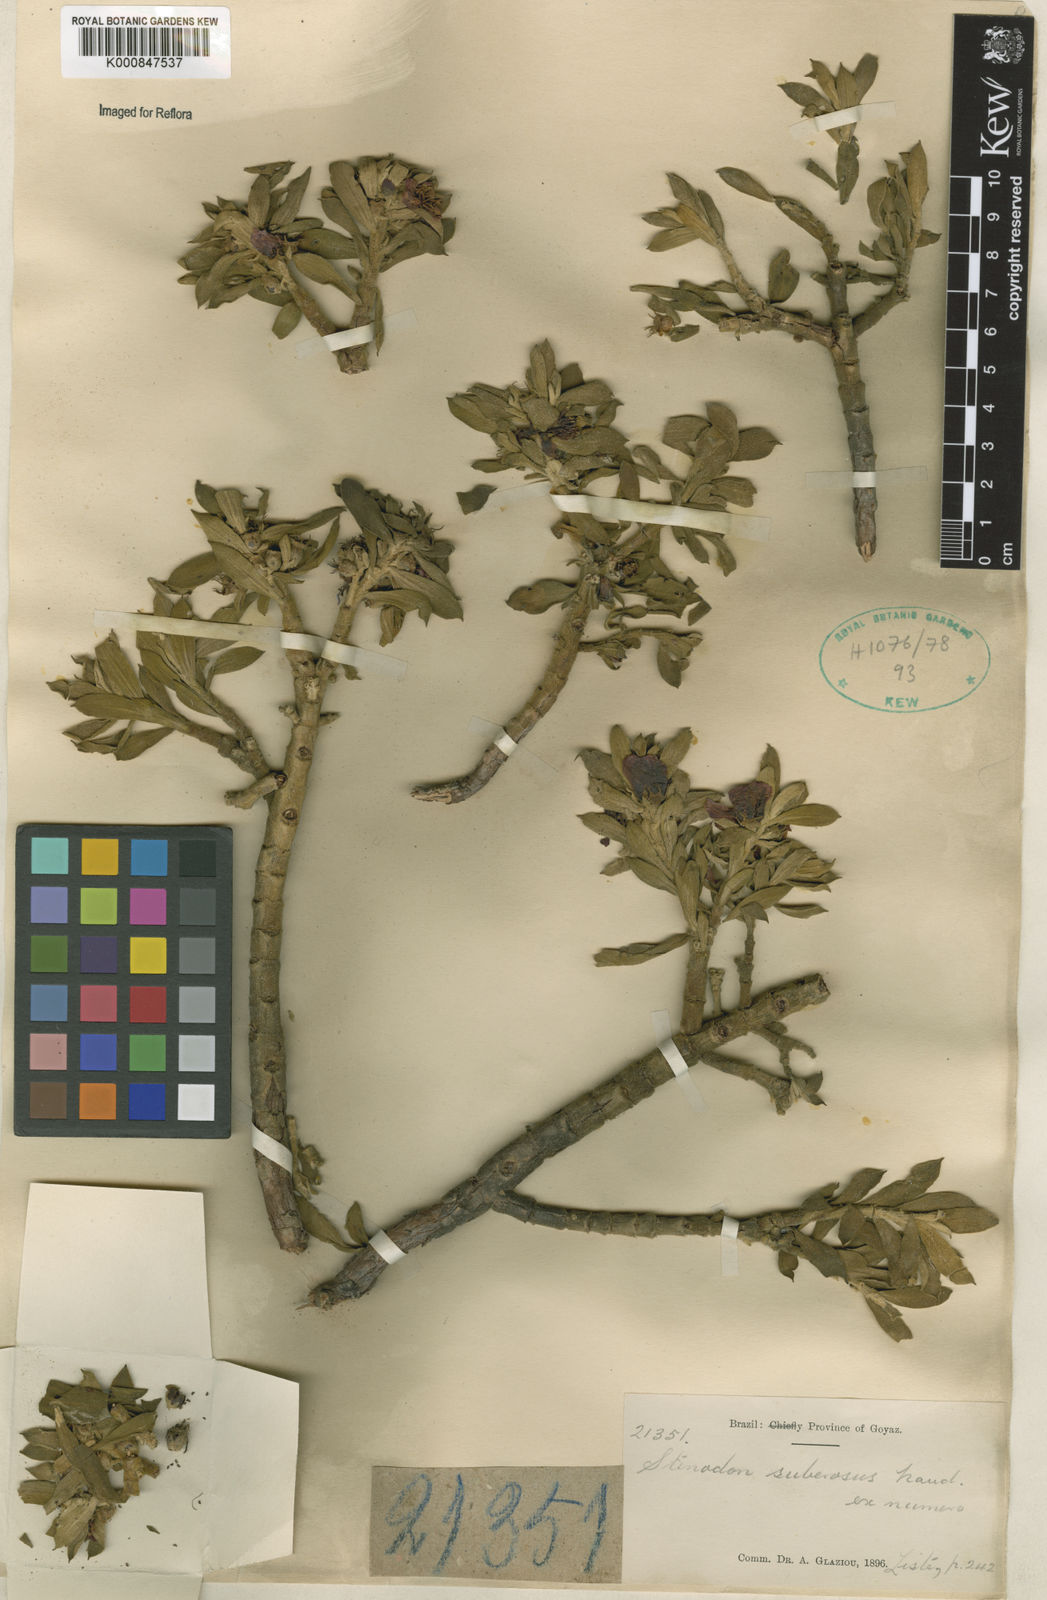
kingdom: Plantae
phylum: Tracheophyta
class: Magnoliopsida
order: Myrtales
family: Melastomataceae
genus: Microlicia
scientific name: Microlicia suberosa
